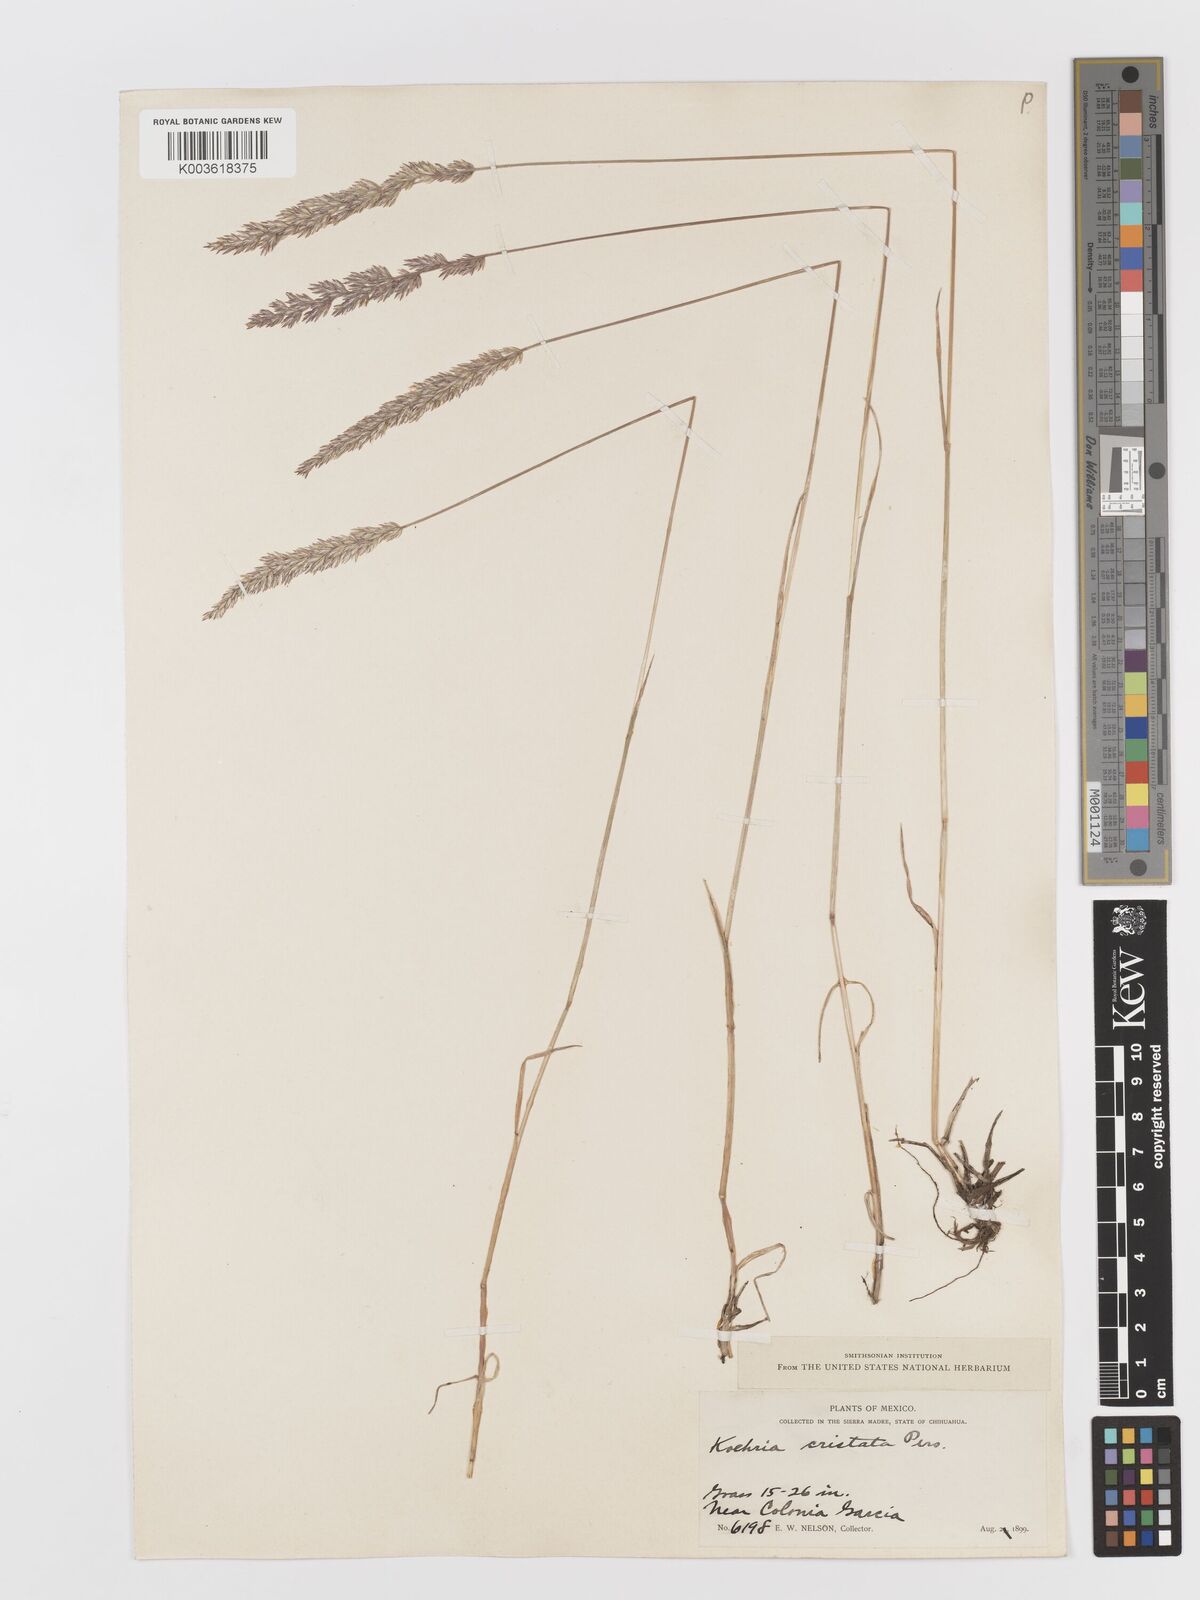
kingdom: Plantae
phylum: Tracheophyta
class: Liliopsida
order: Poales
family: Poaceae
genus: Koeleria
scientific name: Koeleria pyramidata
